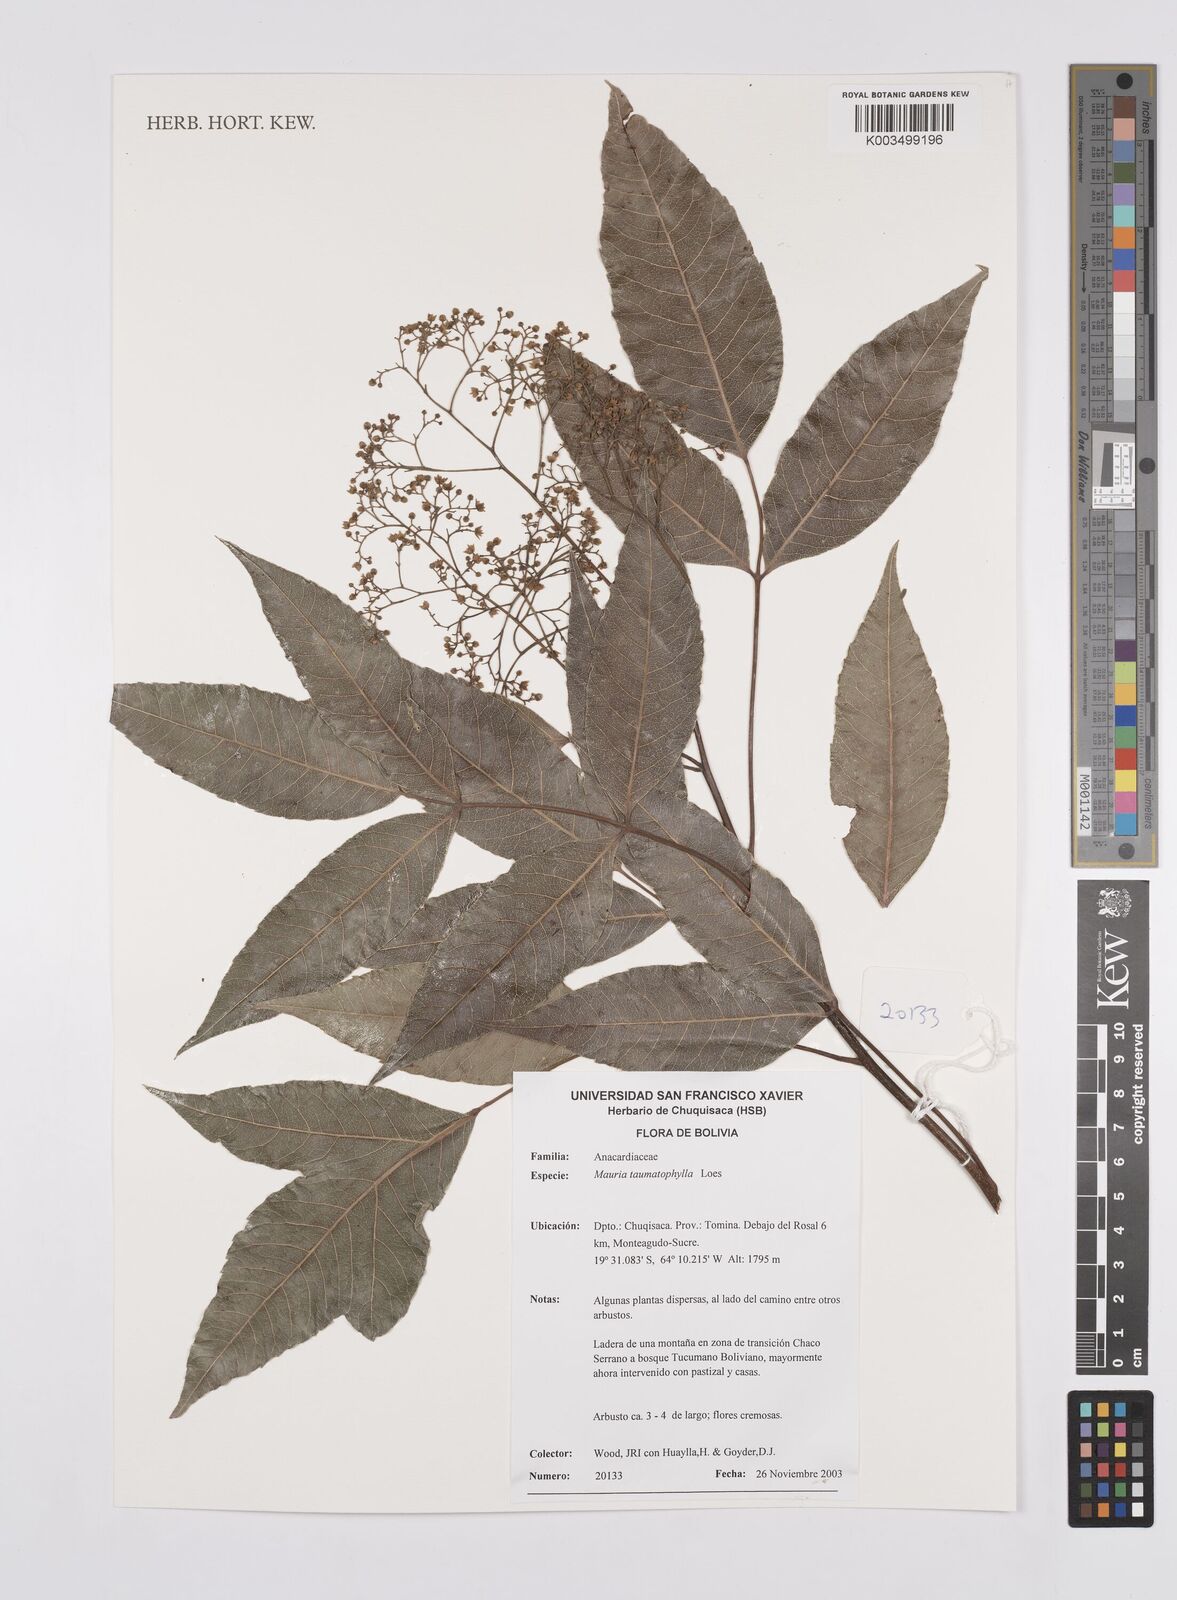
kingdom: Plantae
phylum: Tracheophyta
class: Magnoliopsida
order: Sapindales
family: Anacardiaceae
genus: Mauria
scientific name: Mauria thaumatophylla
